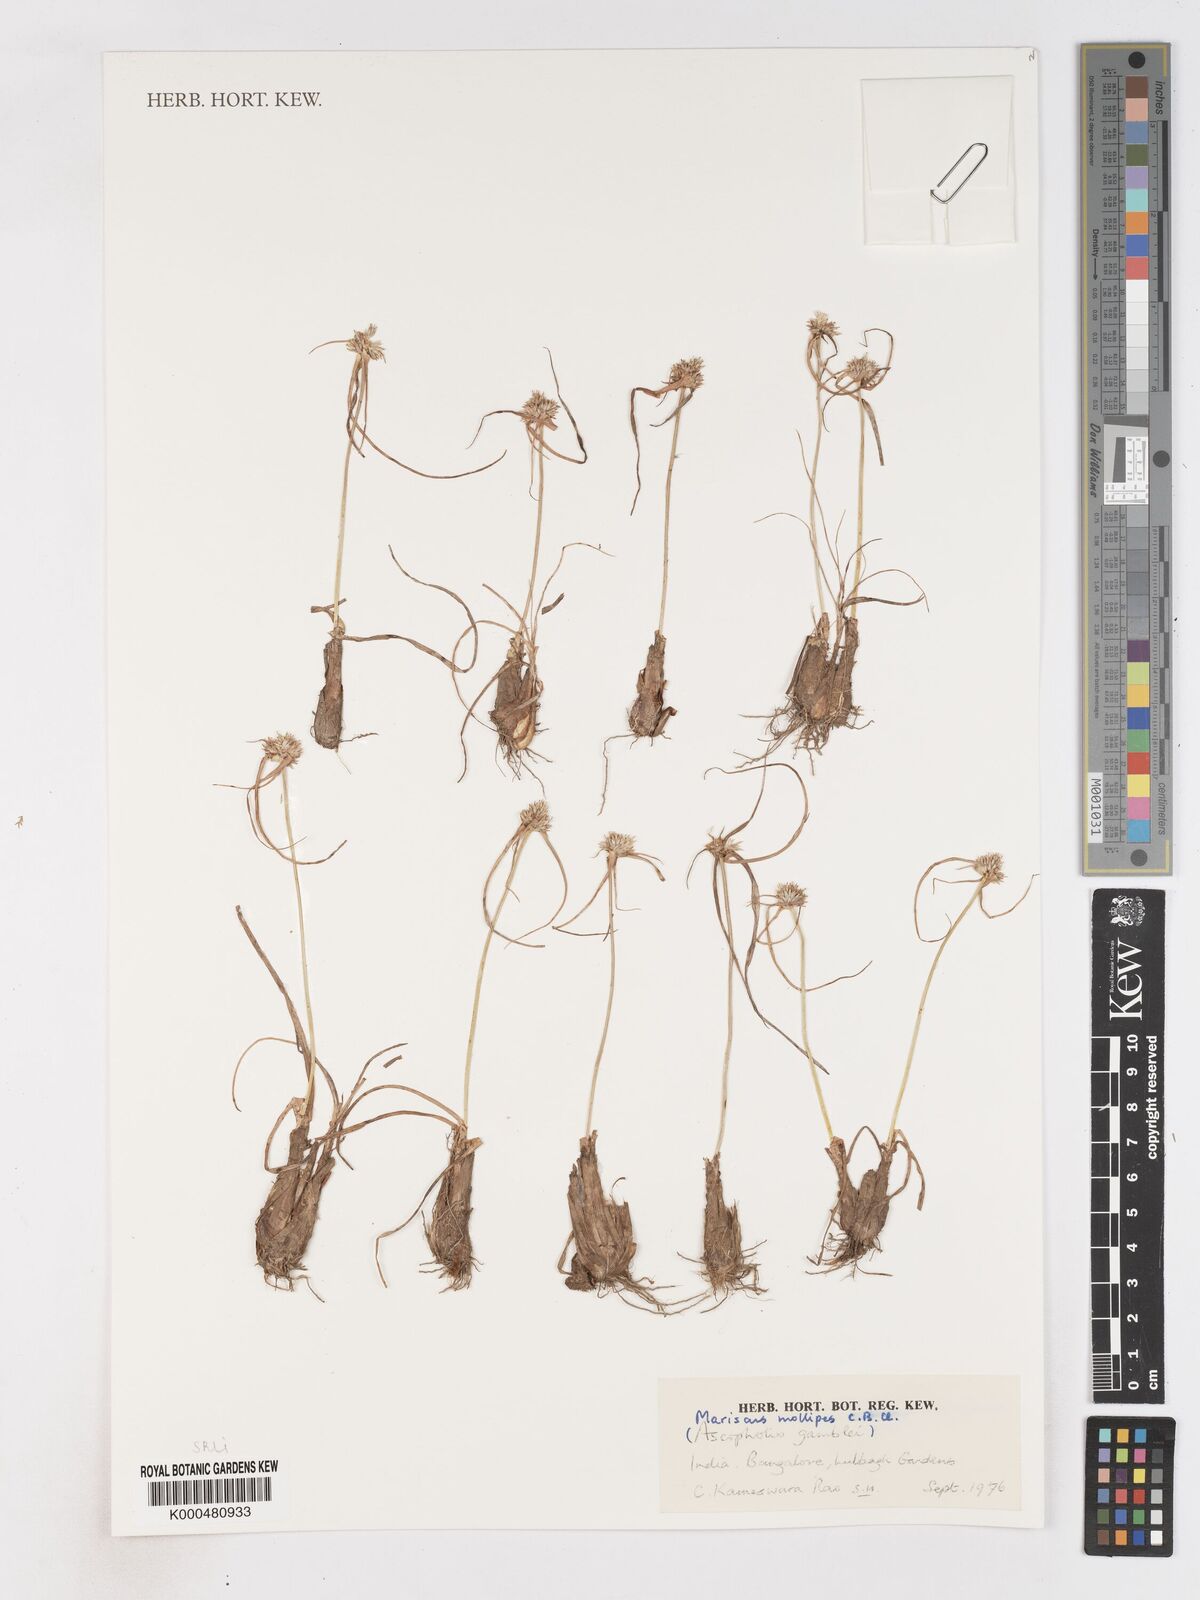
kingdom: Plantae
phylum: Tracheophyta
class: Liliopsida
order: Poales
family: Cyperaceae
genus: Cyperus
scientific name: Cyperus mollipes
